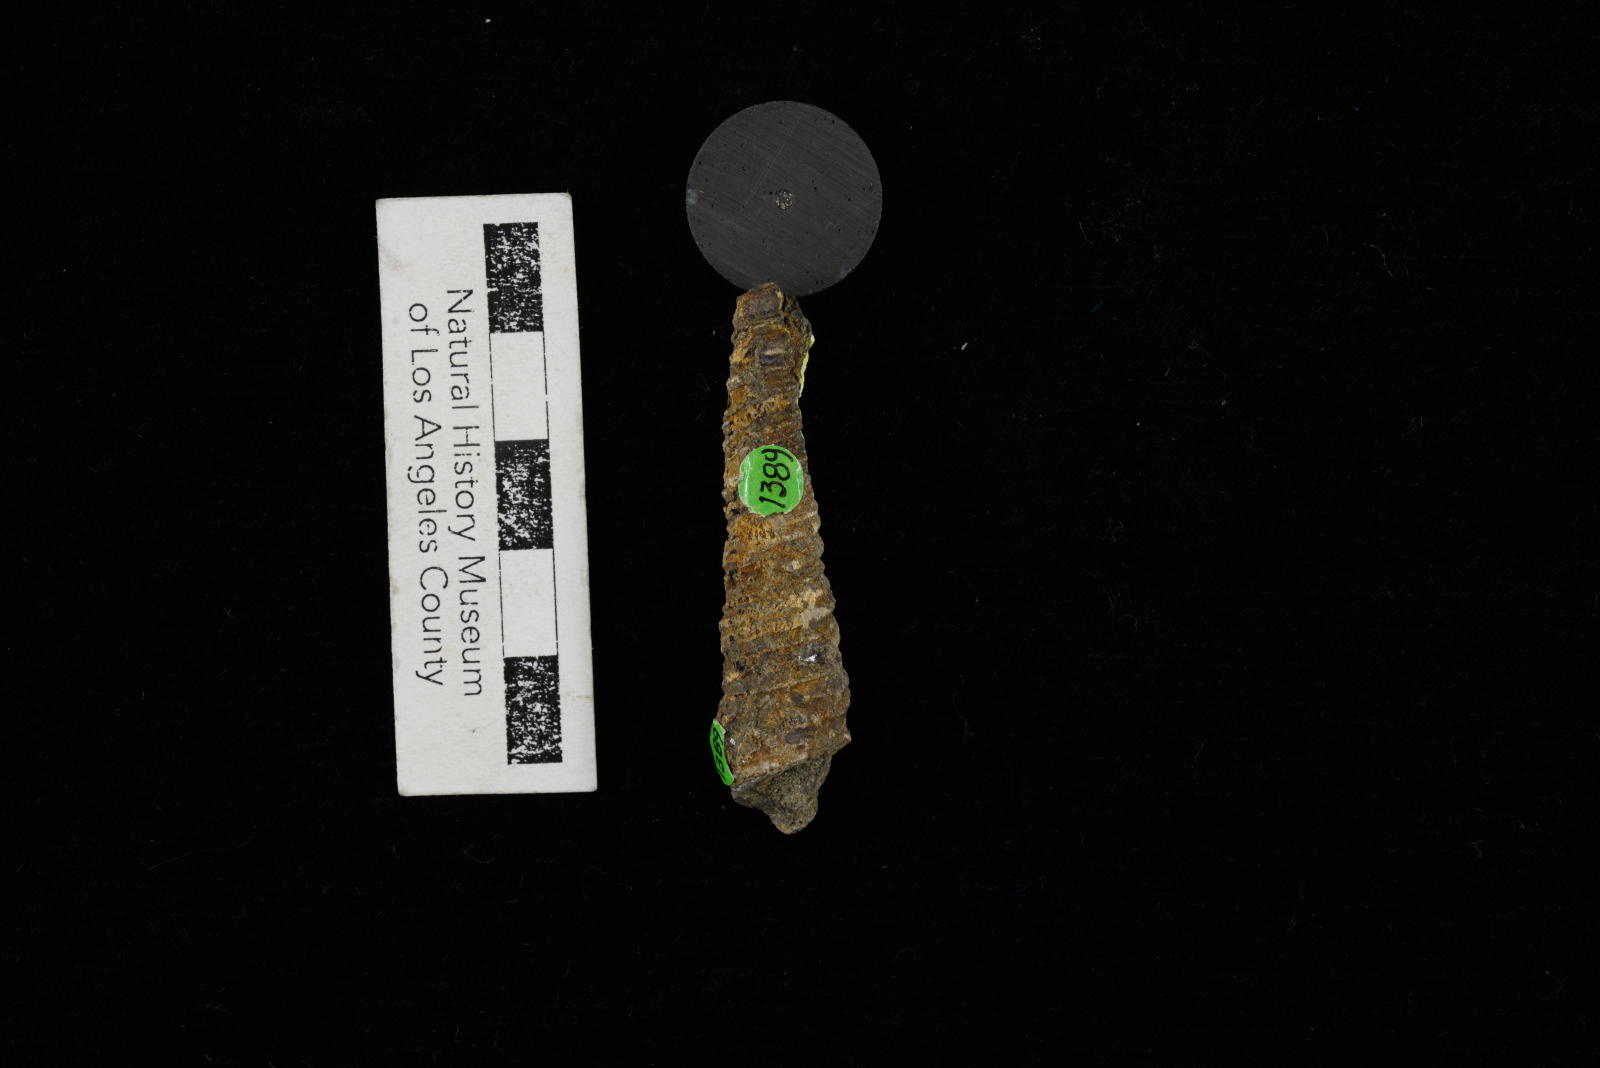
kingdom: Animalia
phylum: Mollusca
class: Gastropoda
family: Turritellidae
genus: Turritella
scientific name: Turritella
